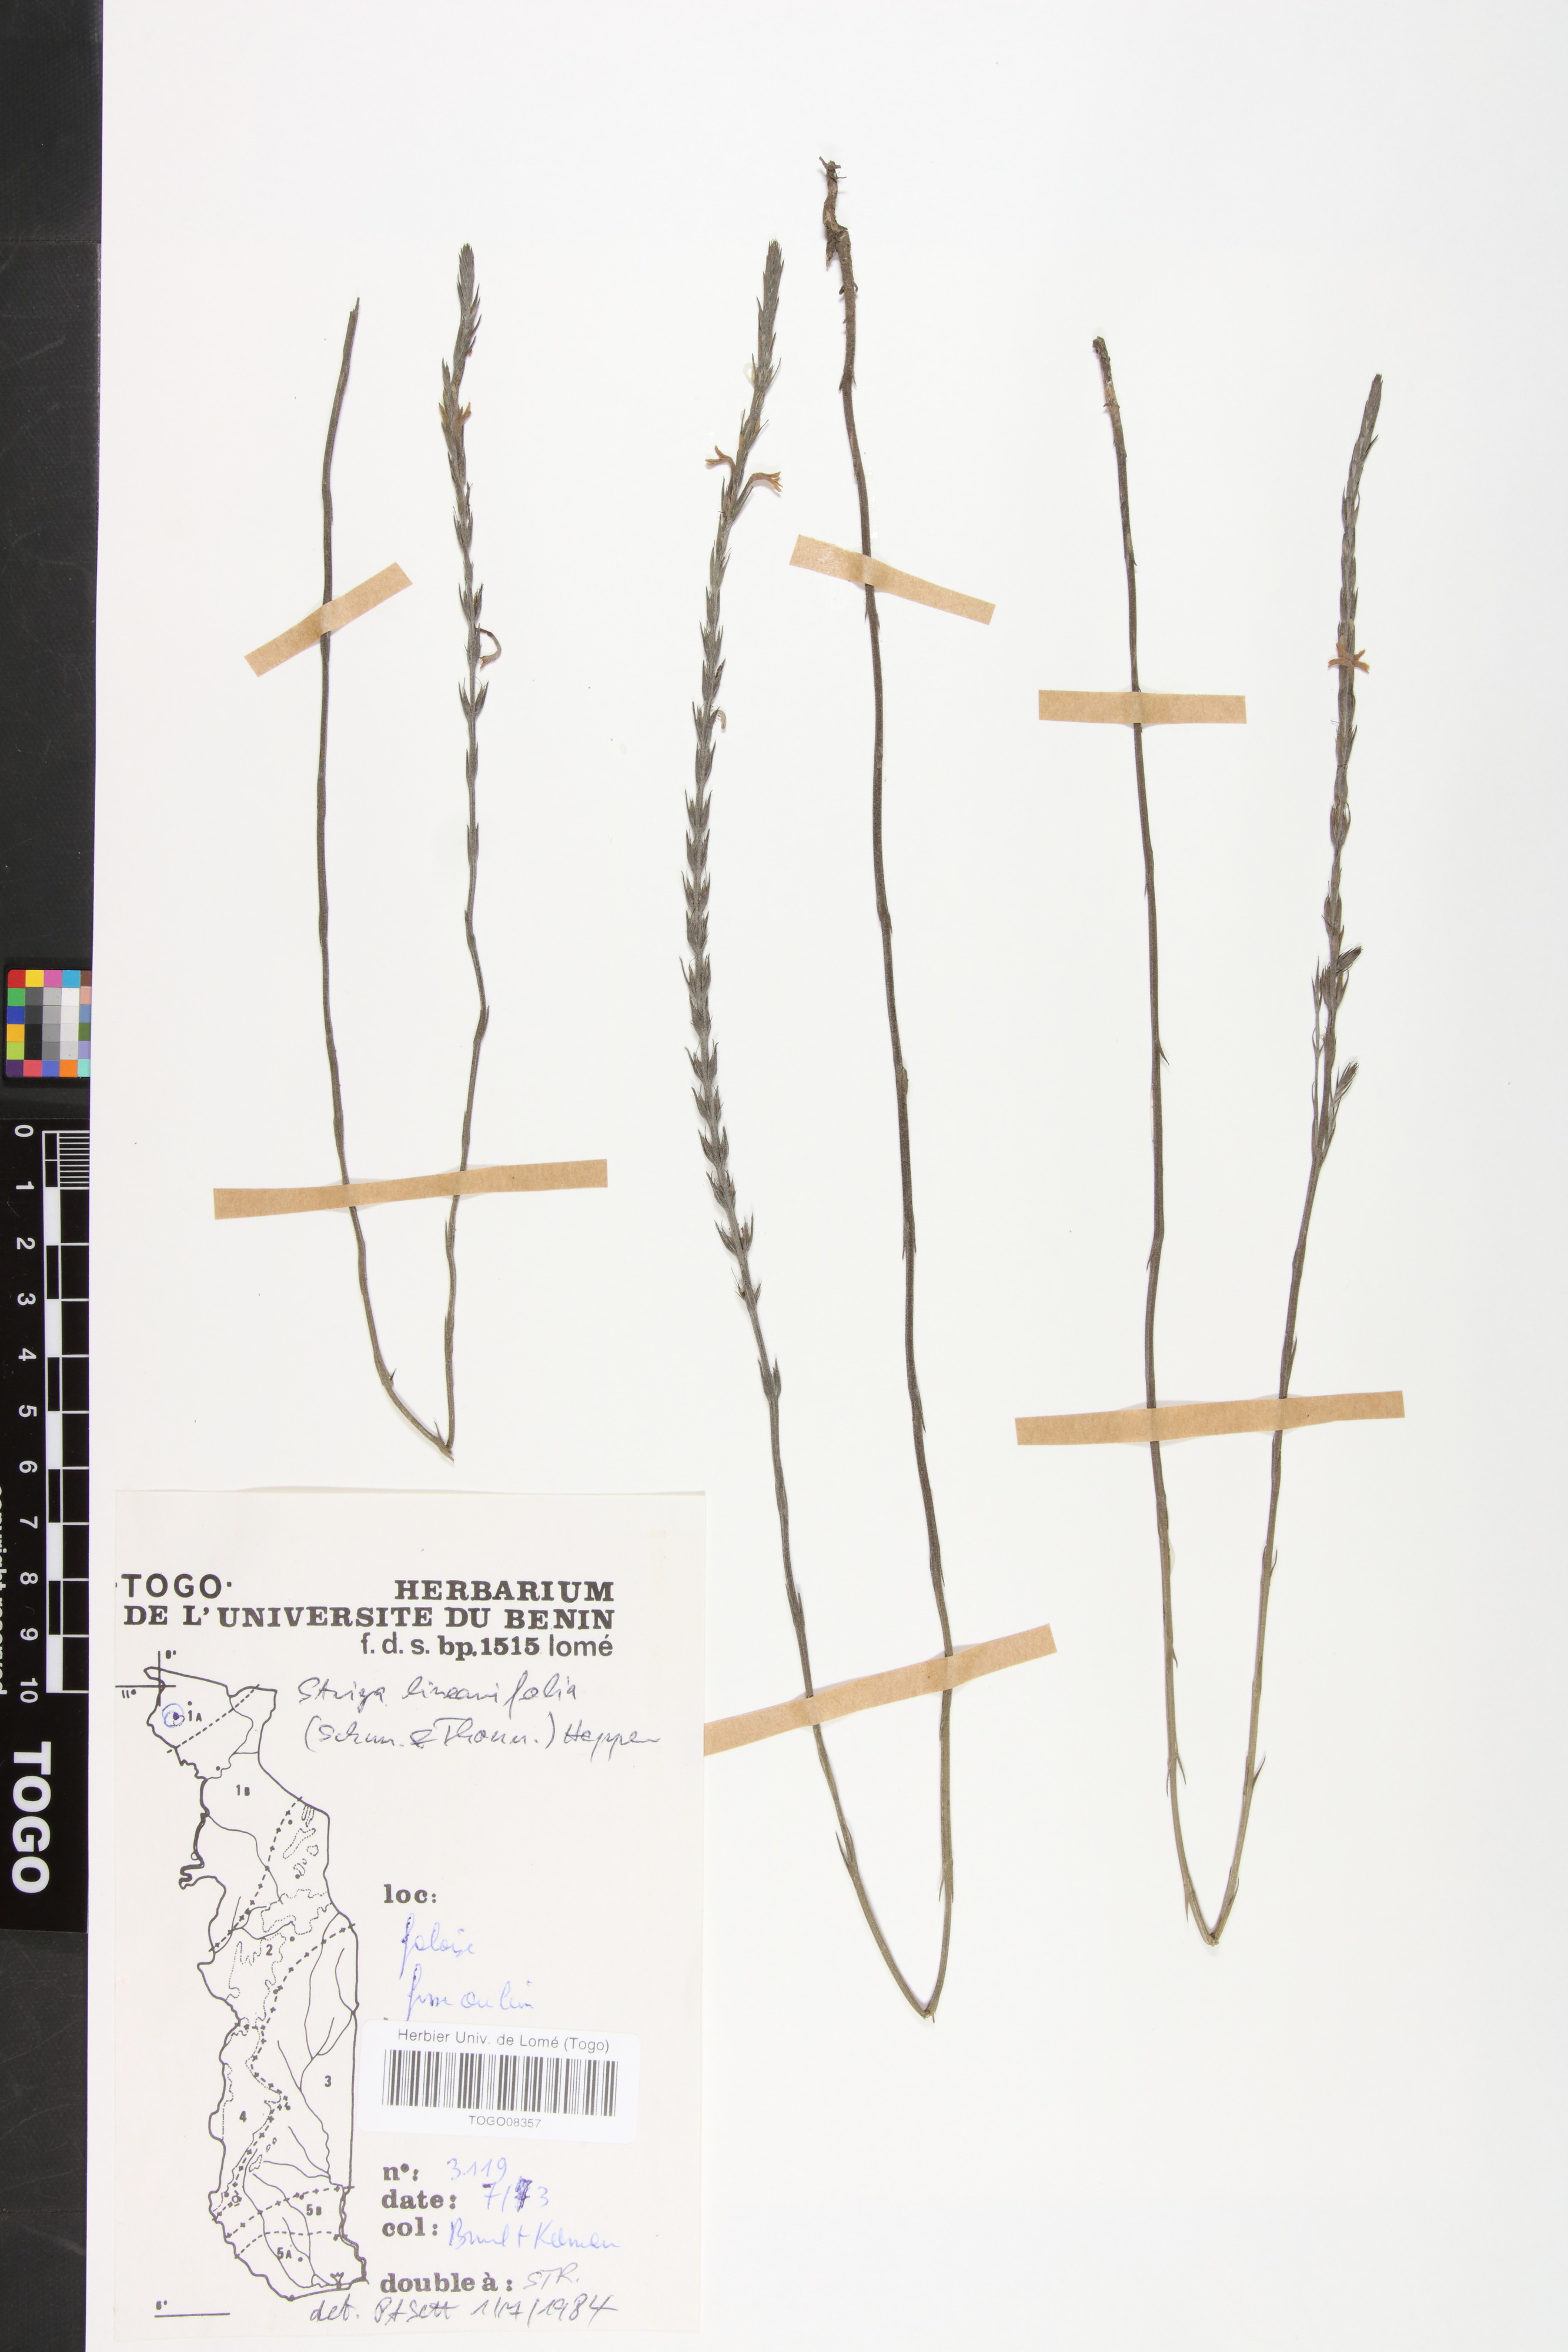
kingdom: Plantae
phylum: Tracheophyta
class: Magnoliopsida
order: Lamiales
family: Orobanchaceae
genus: Striga
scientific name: Striga linearifolia
